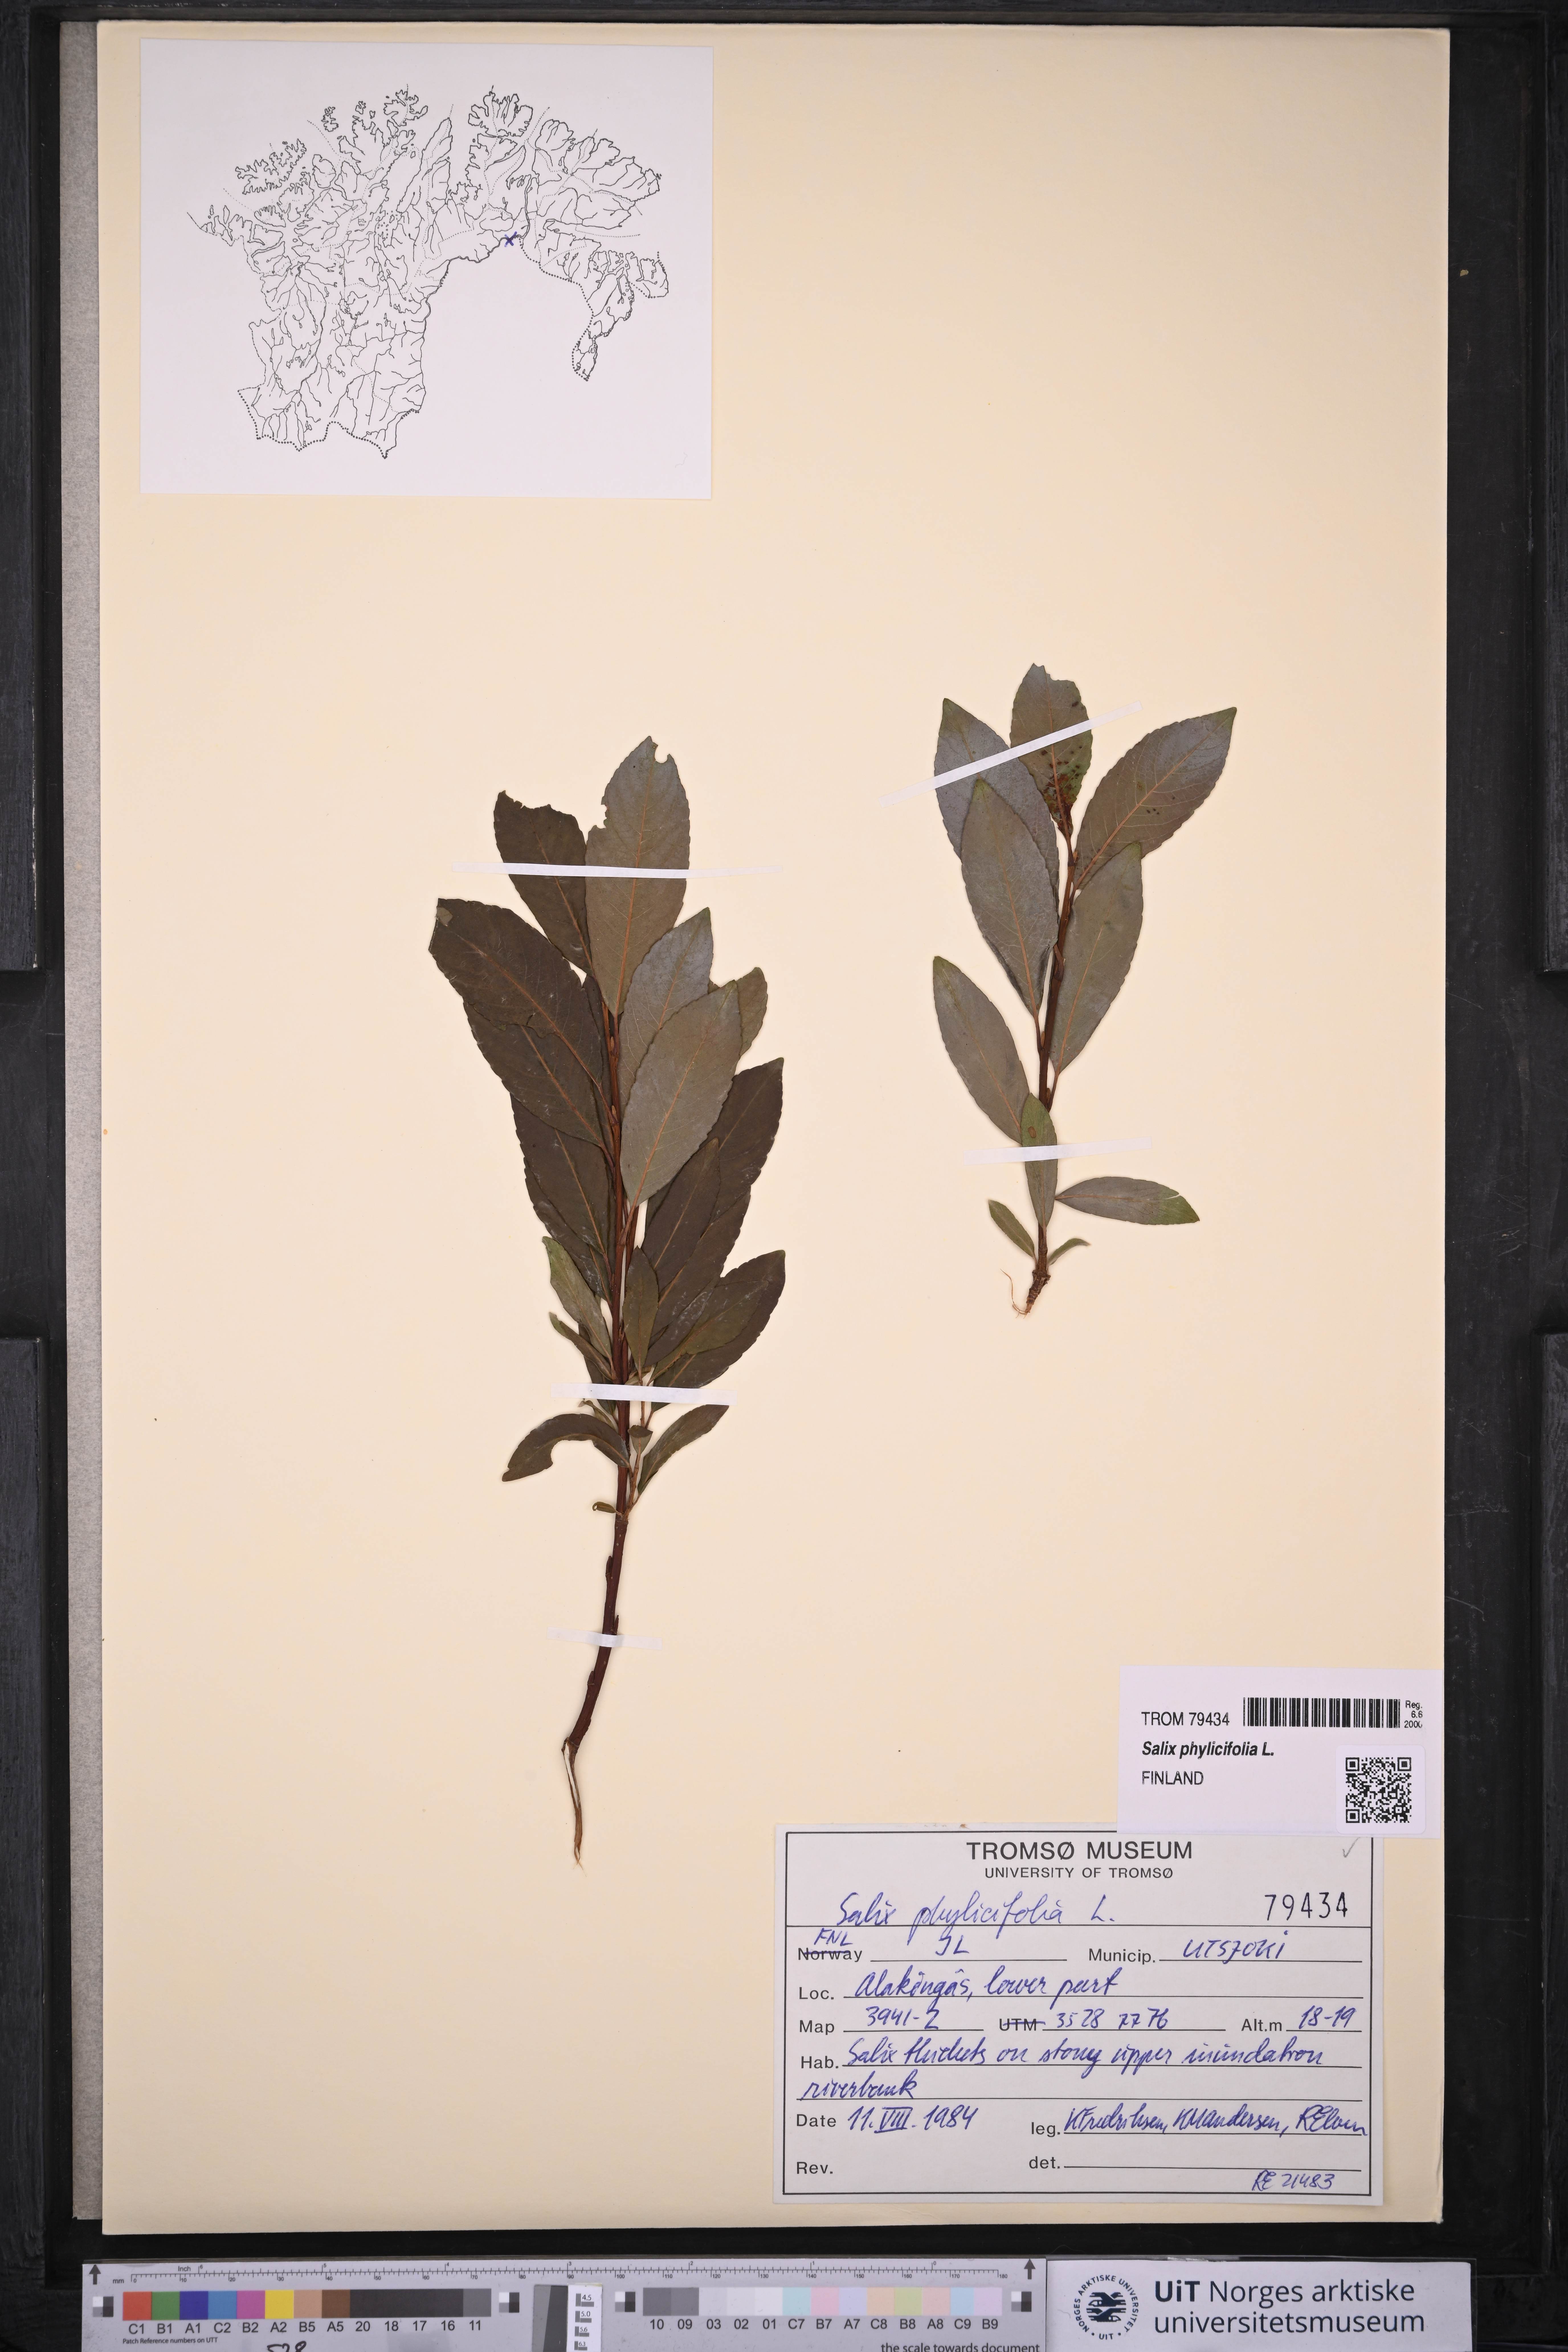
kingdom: Plantae
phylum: Tracheophyta
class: Magnoliopsida
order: Malpighiales
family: Salicaceae
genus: Salix
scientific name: Salix phylicifolia
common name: Tea-leaved willow
